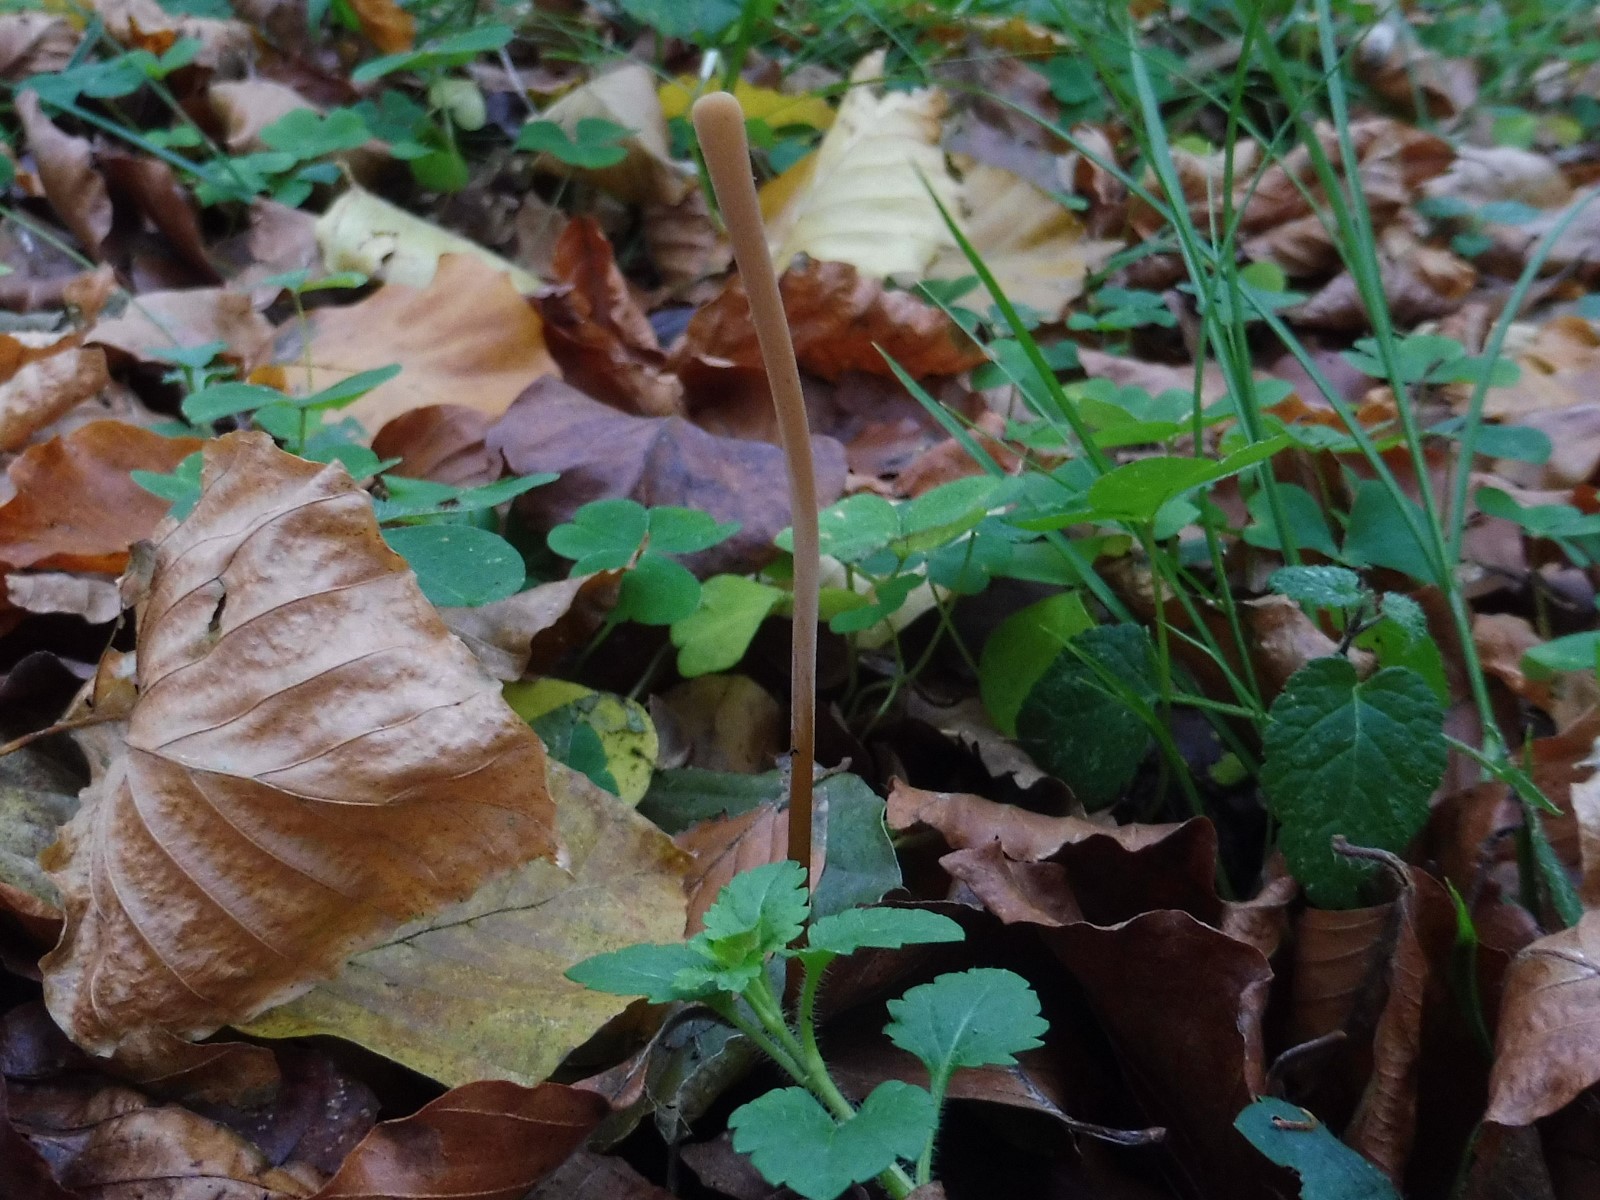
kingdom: Fungi
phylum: Basidiomycota
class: Agaricomycetes
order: Agaricales
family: Typhulaceae
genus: Typhula
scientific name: Typhula fistulosa
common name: pibet rørkølle
